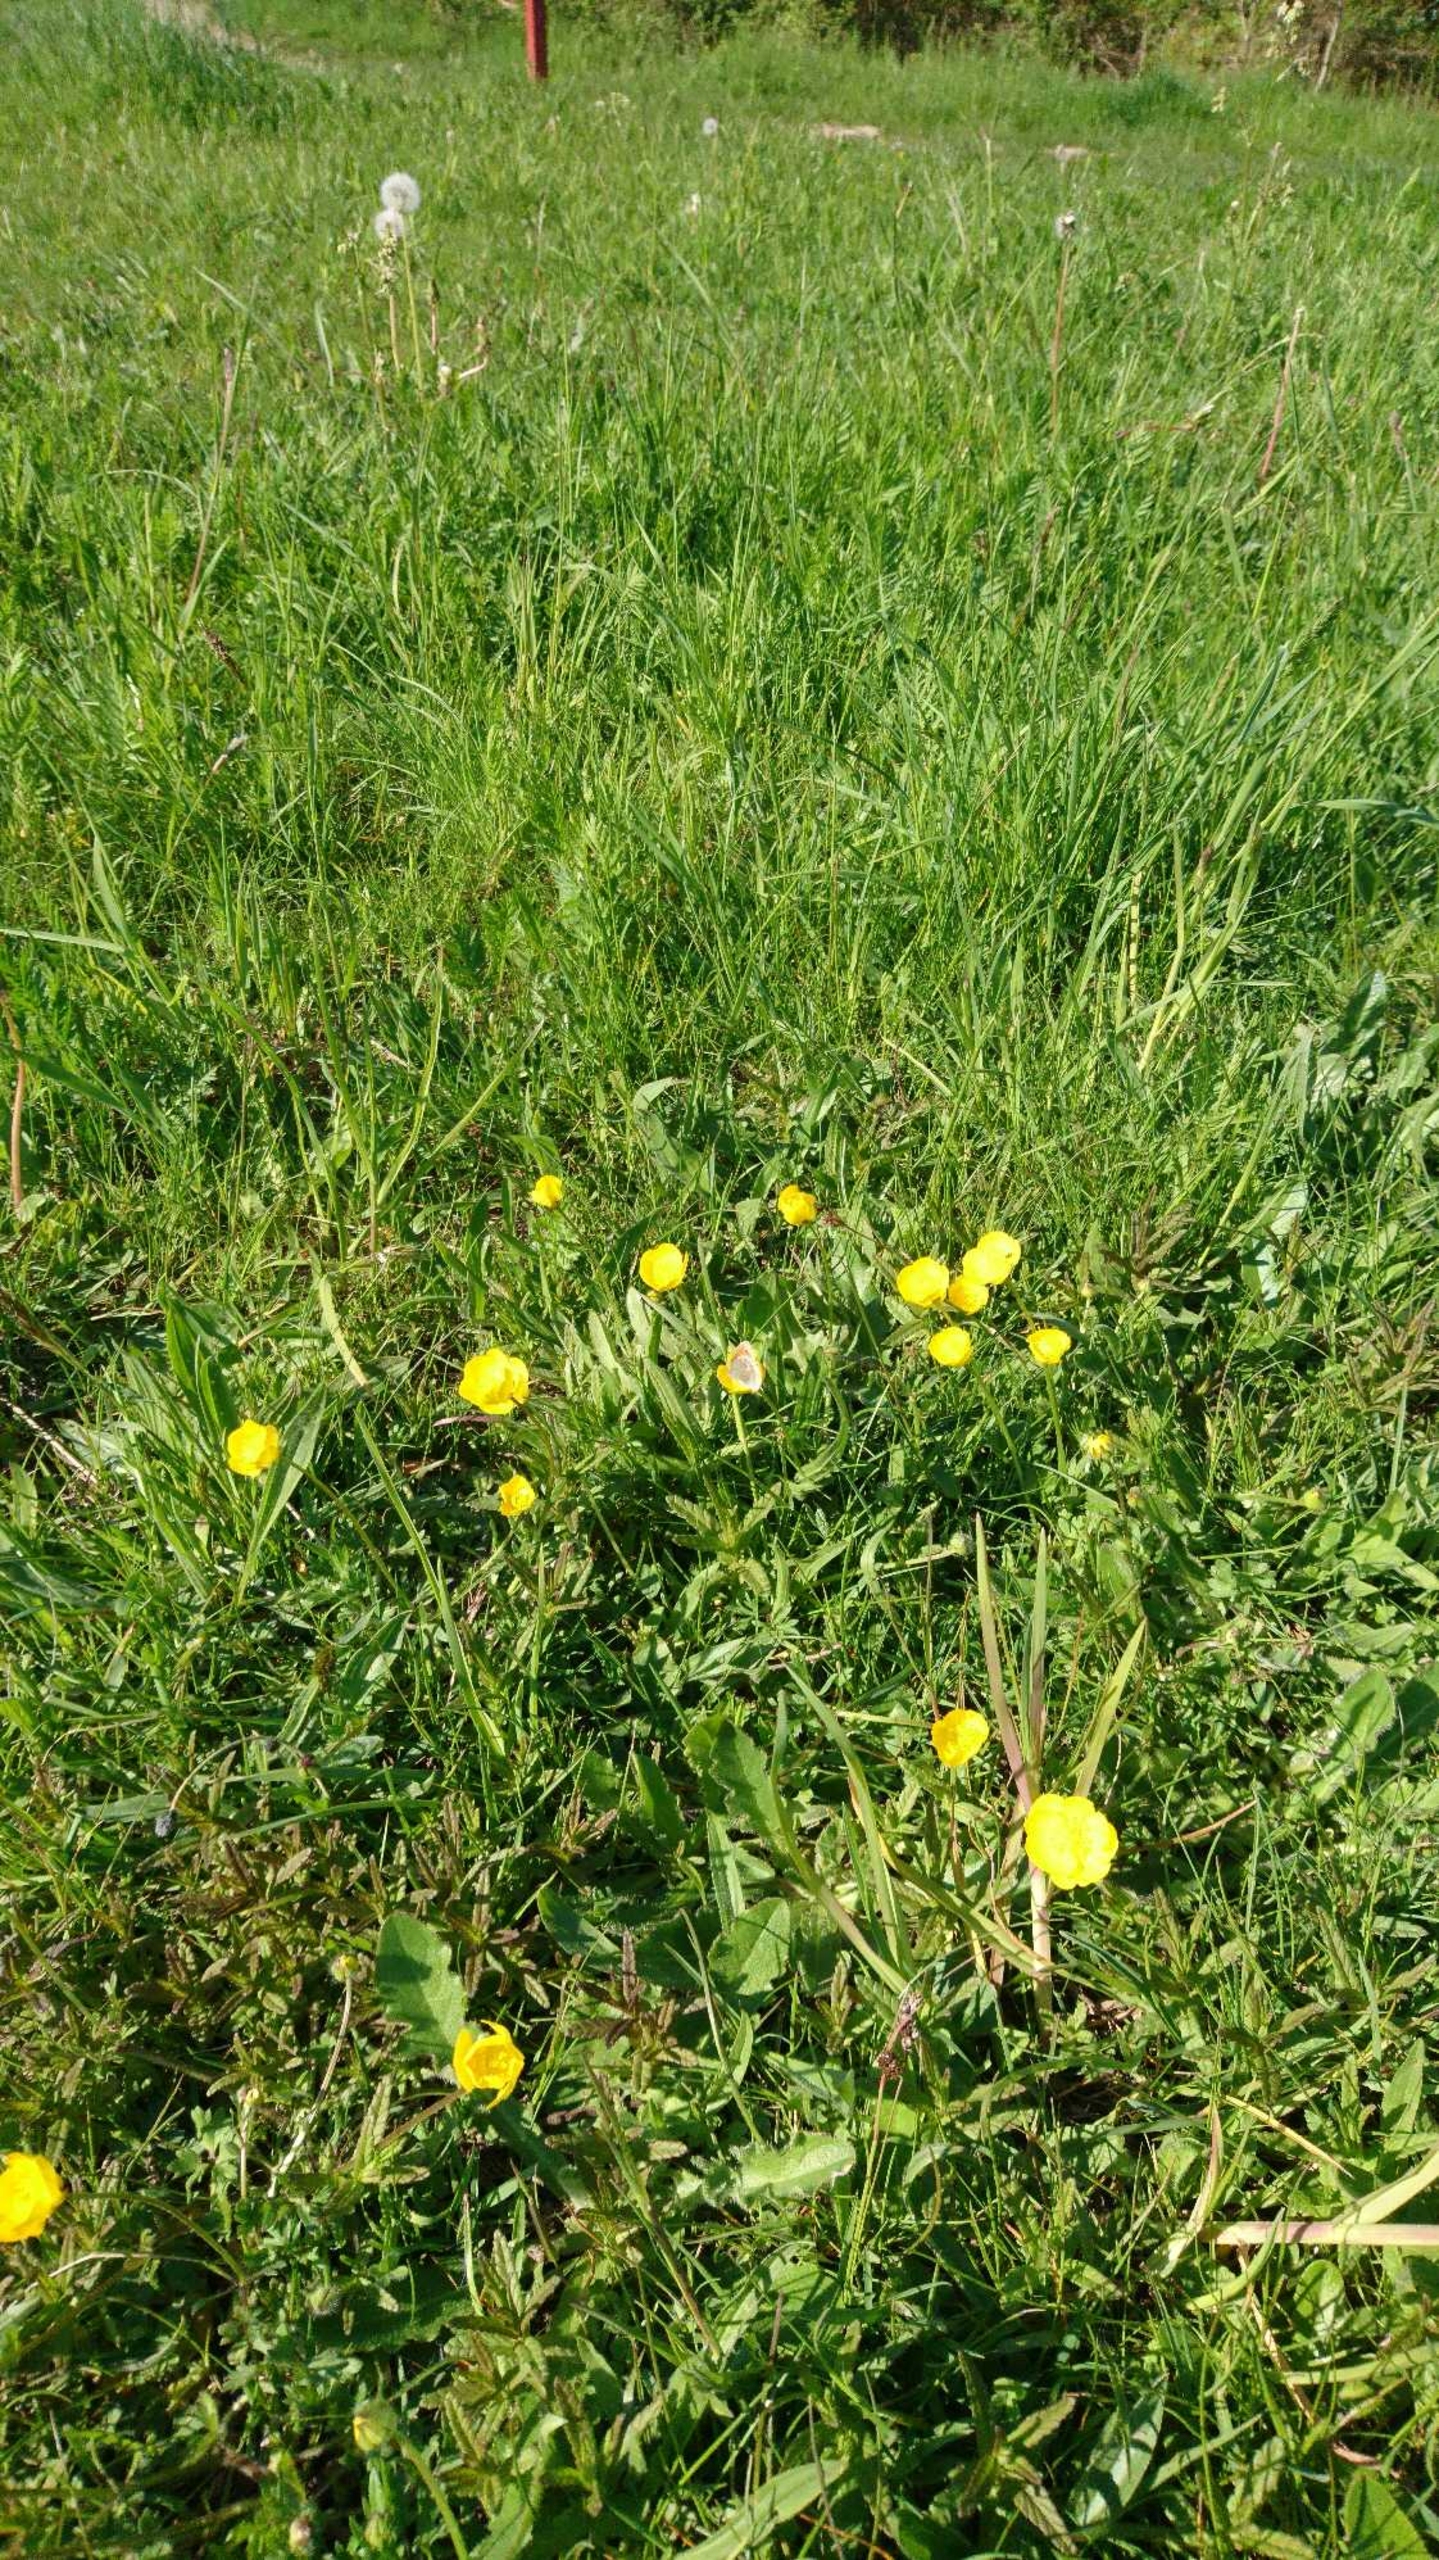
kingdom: Animalia
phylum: Arthropoda
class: Insecta
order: Lepidoptera
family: Nymphalidae
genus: Coenonympha
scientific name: Coenonympha pamphilus
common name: Okkergul randøje
